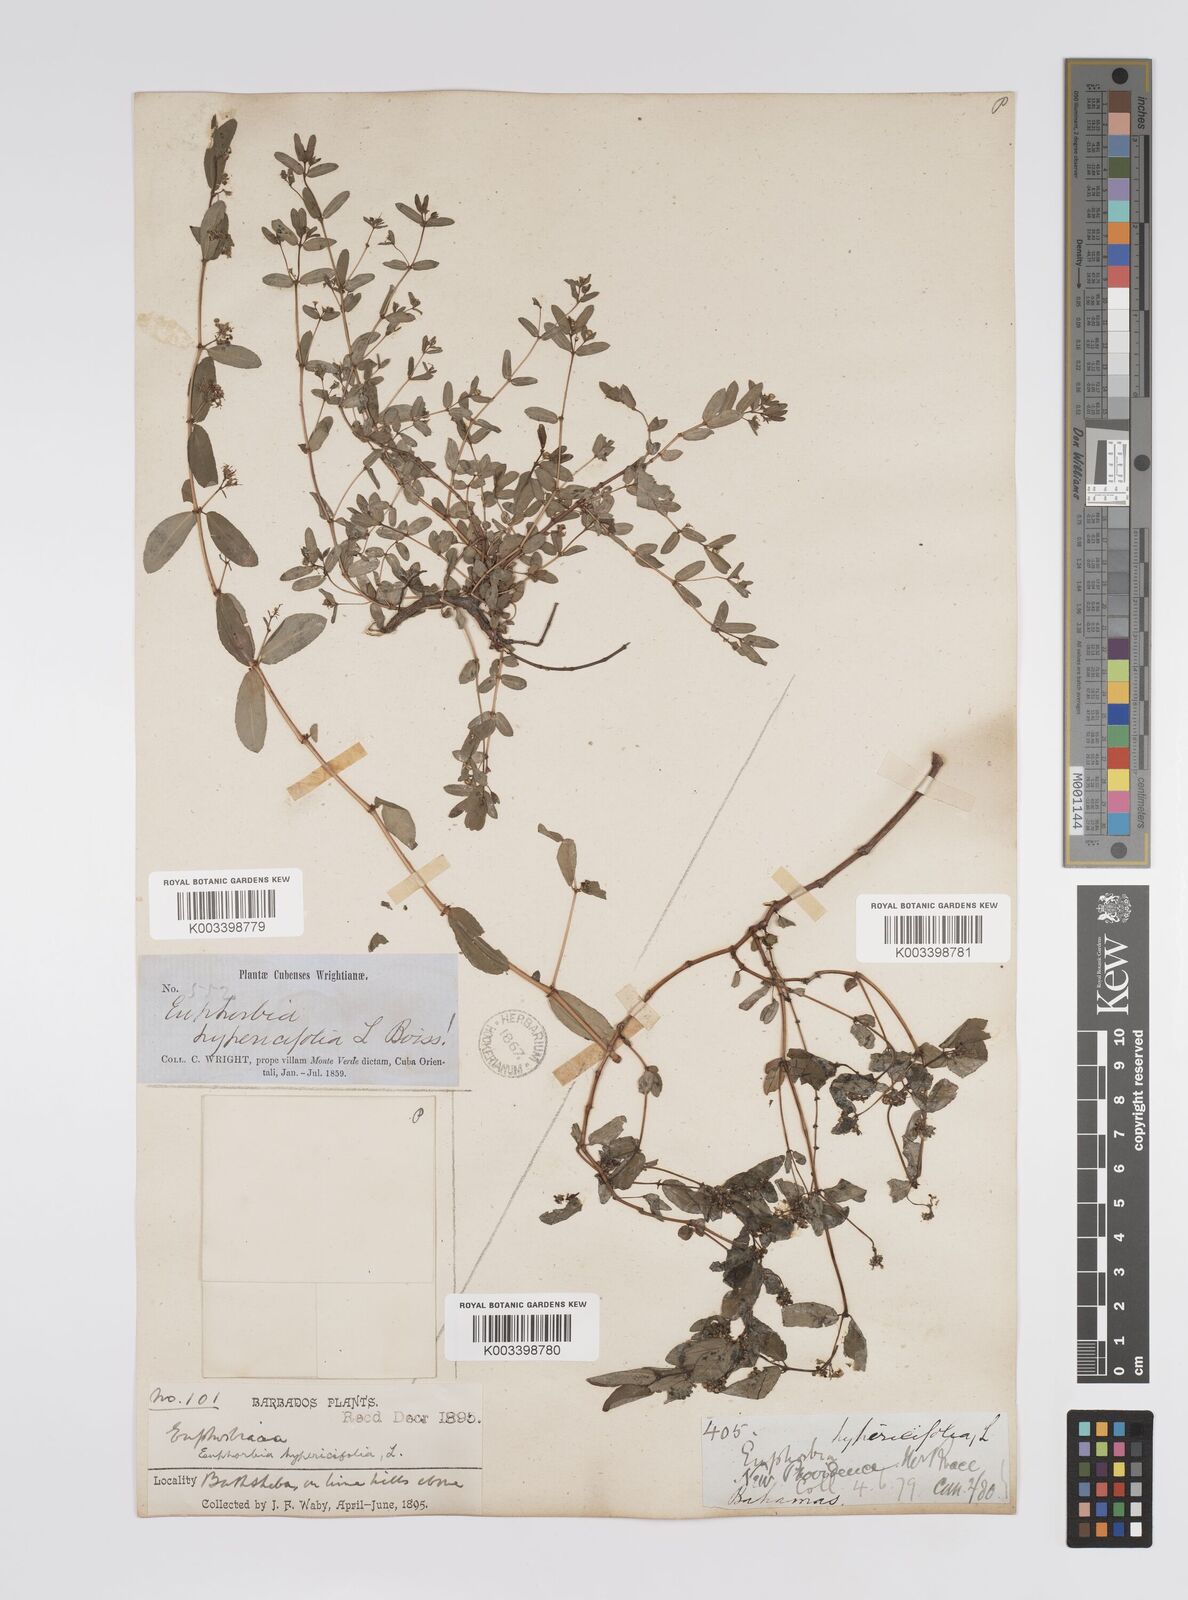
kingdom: Plantae
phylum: Tracheophyta
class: Magnoliopsida
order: Malpighiales
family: Euphorbiaceae
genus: Euphorbia
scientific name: Euphorbia hypericifolia
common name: Graceful sandmat
